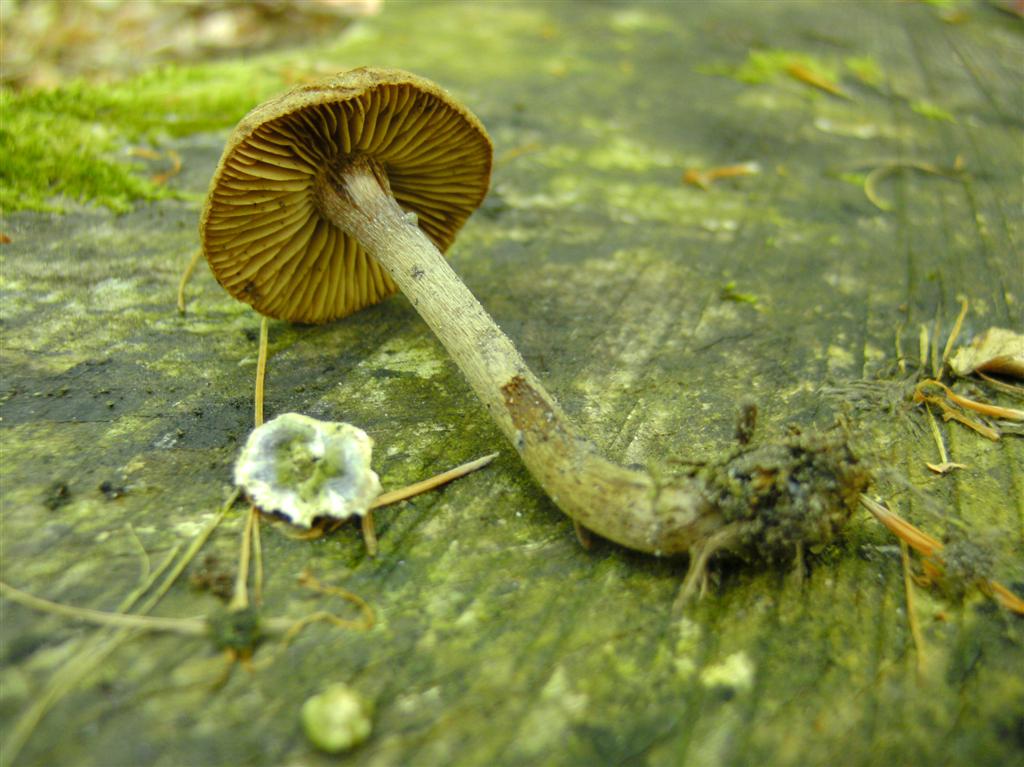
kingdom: Fungi
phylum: Basidiomycota
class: Agaricomycetes
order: Agaricales
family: Inocybaceae
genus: Inocybe
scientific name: Inocybe lacera
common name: laset trævlhat
